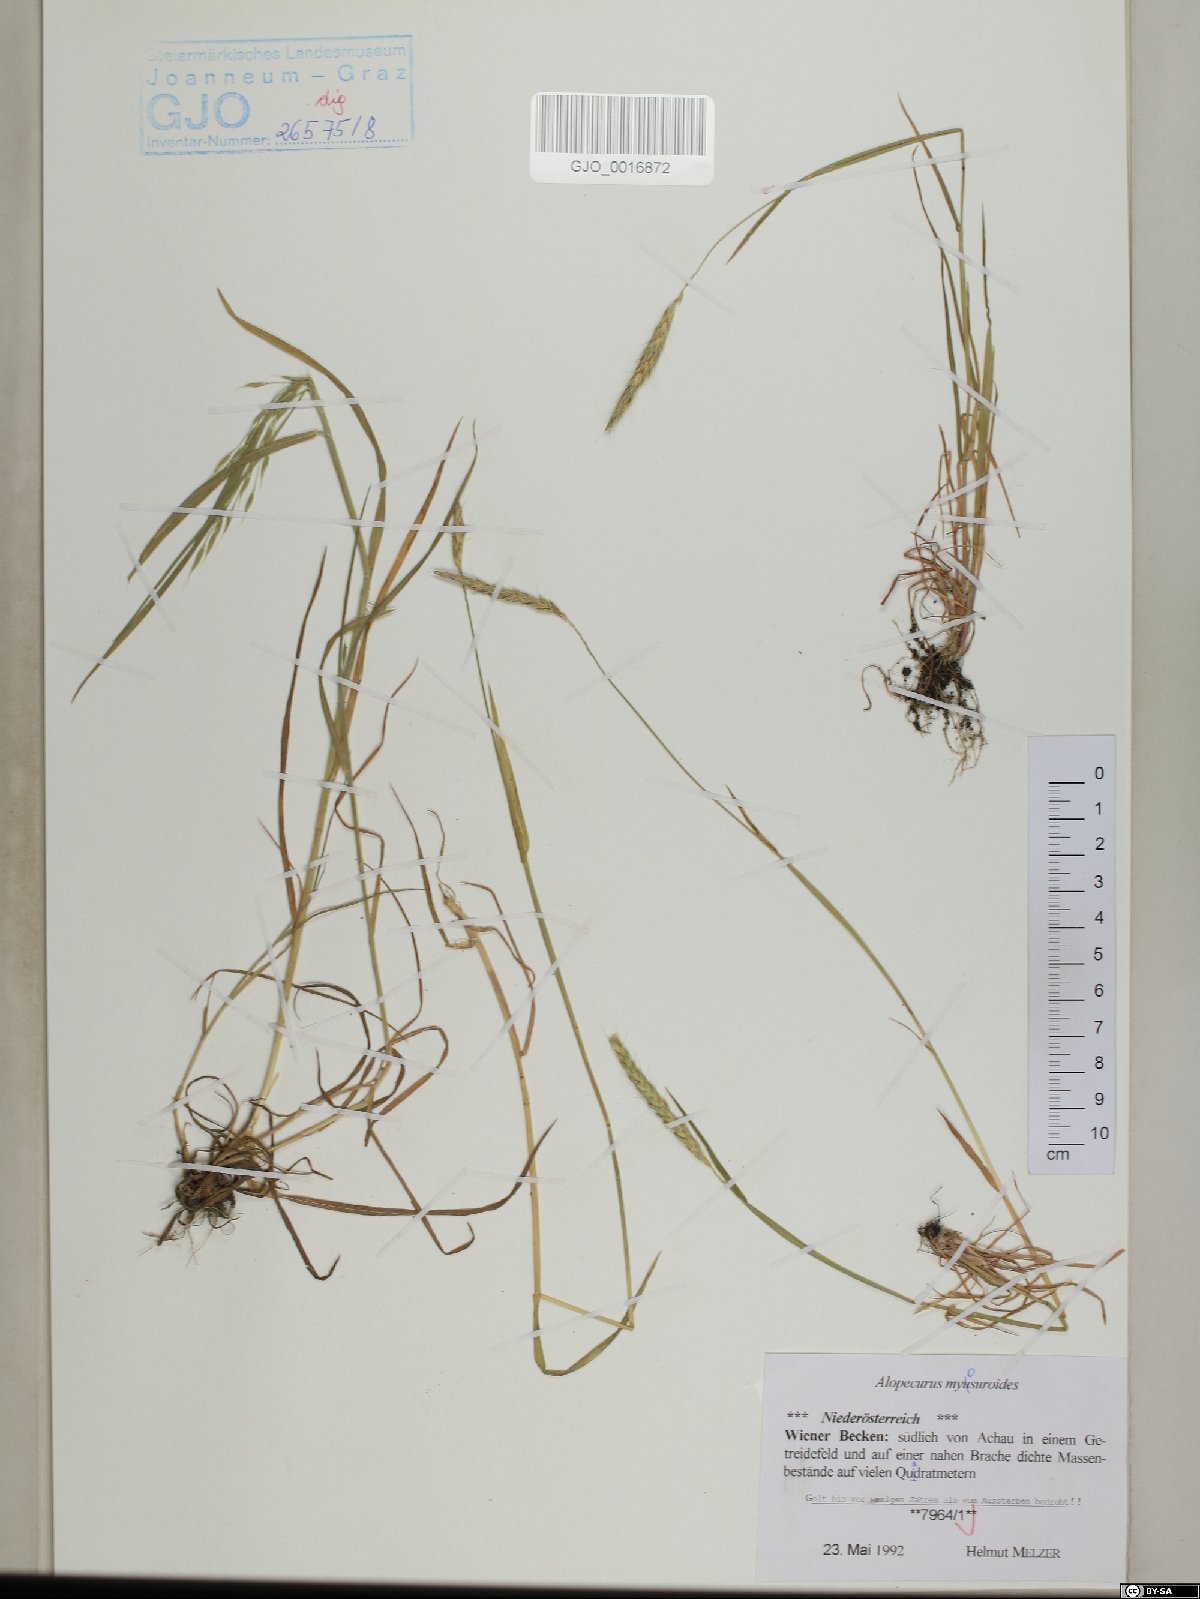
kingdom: Plantae
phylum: Tracheophyta
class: Liliopsida
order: Poales
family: Poaceae
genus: Alopecurus
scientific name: Alopecurus myosuroides
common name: Black-grass
